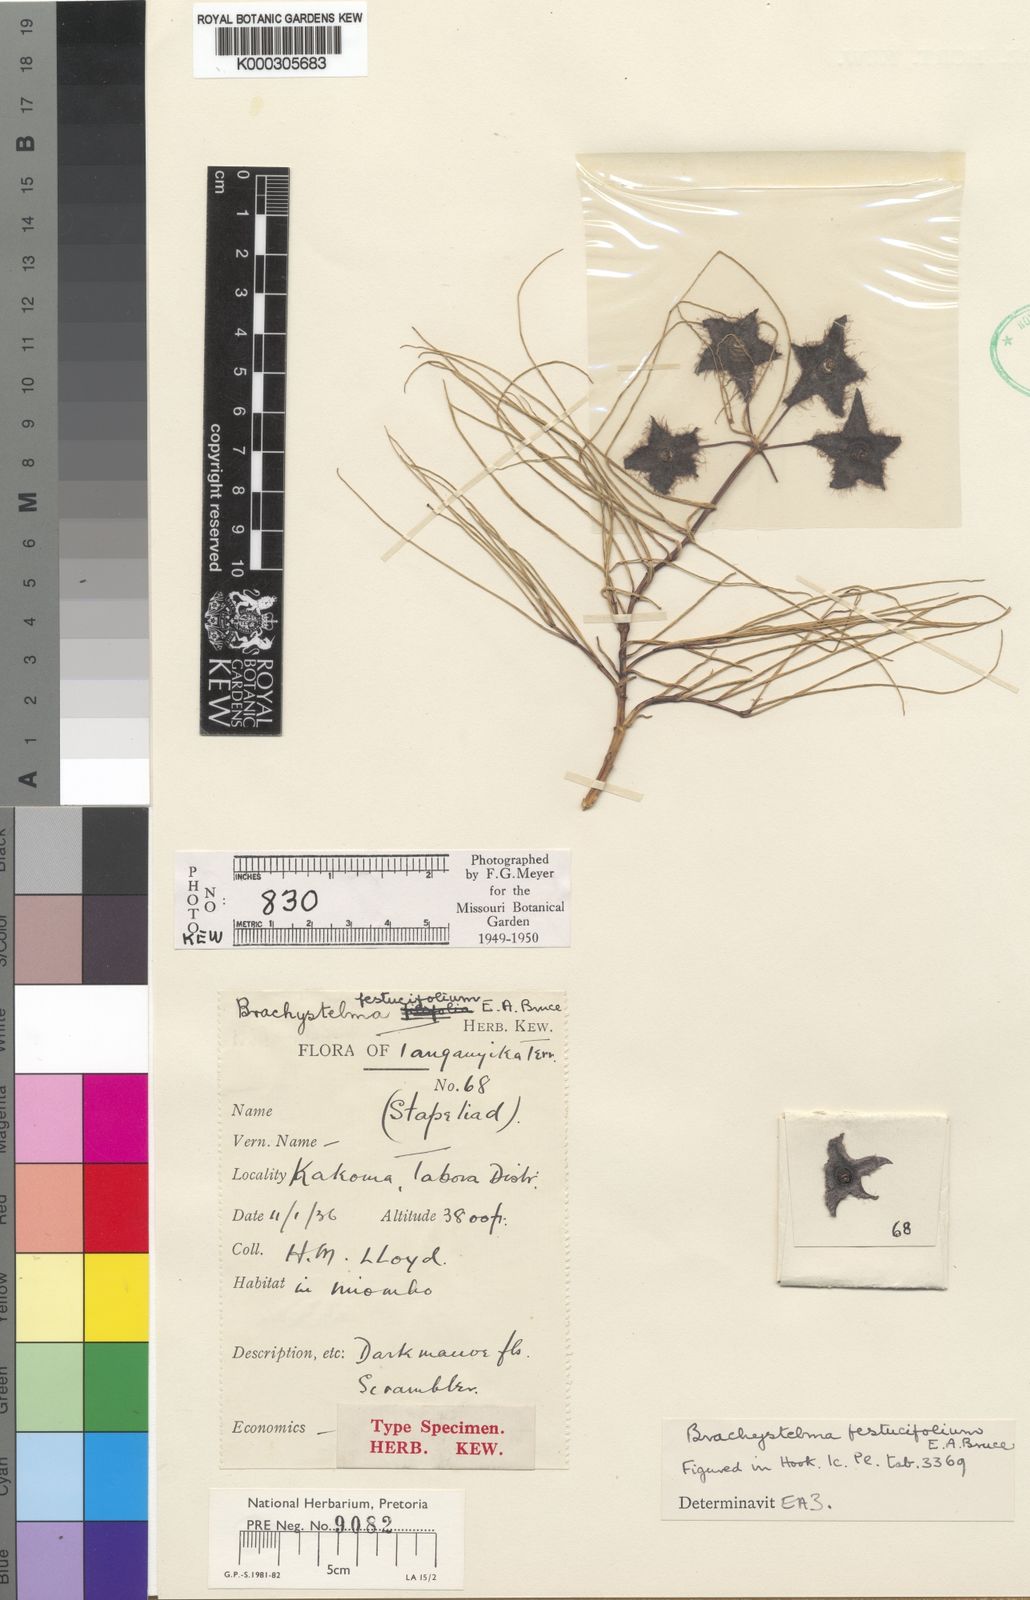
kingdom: Plantae
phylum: Tracheophyta
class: Magnoliopsida
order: Gentianales
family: Apocynaceae
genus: Ceropegia
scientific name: Ceropegia festucifolia
